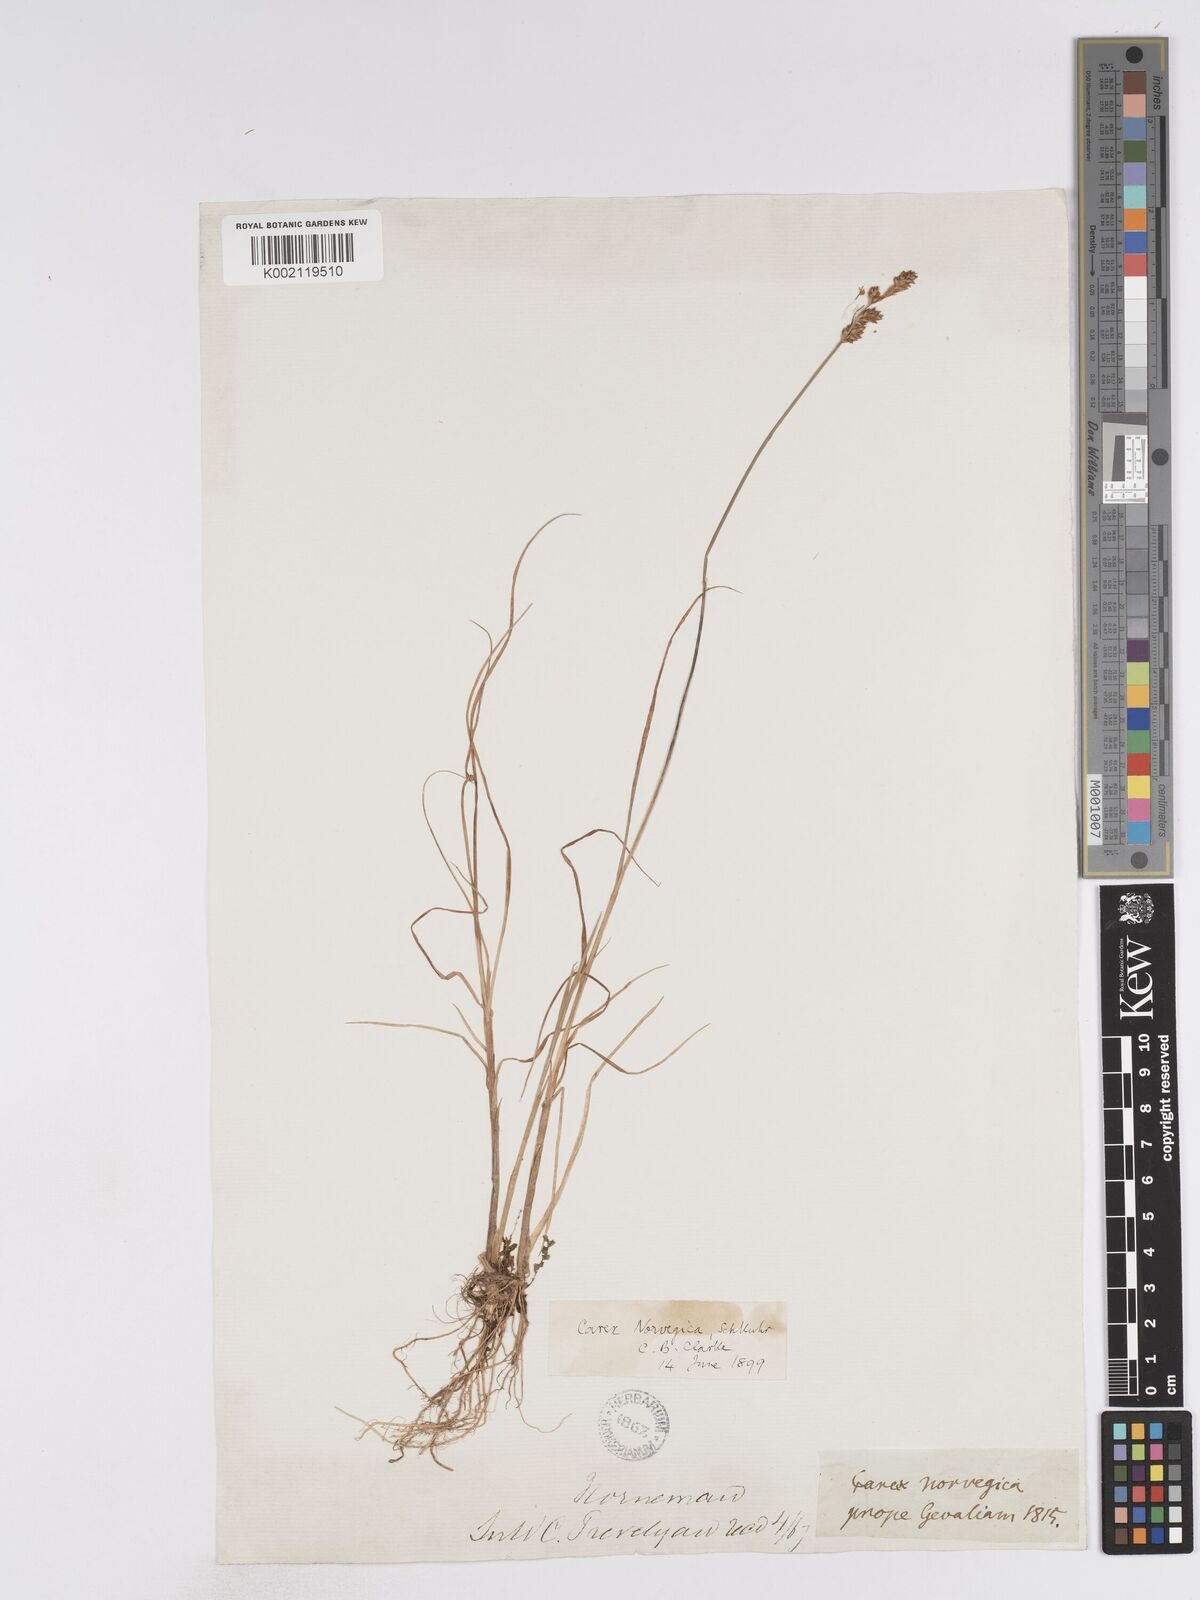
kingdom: Plantae
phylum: Tracheophyta
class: Liliopsida
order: Poales
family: Cyperaceae
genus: Carex
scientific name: Carex mackenziei
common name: Mackenzie's sedge
